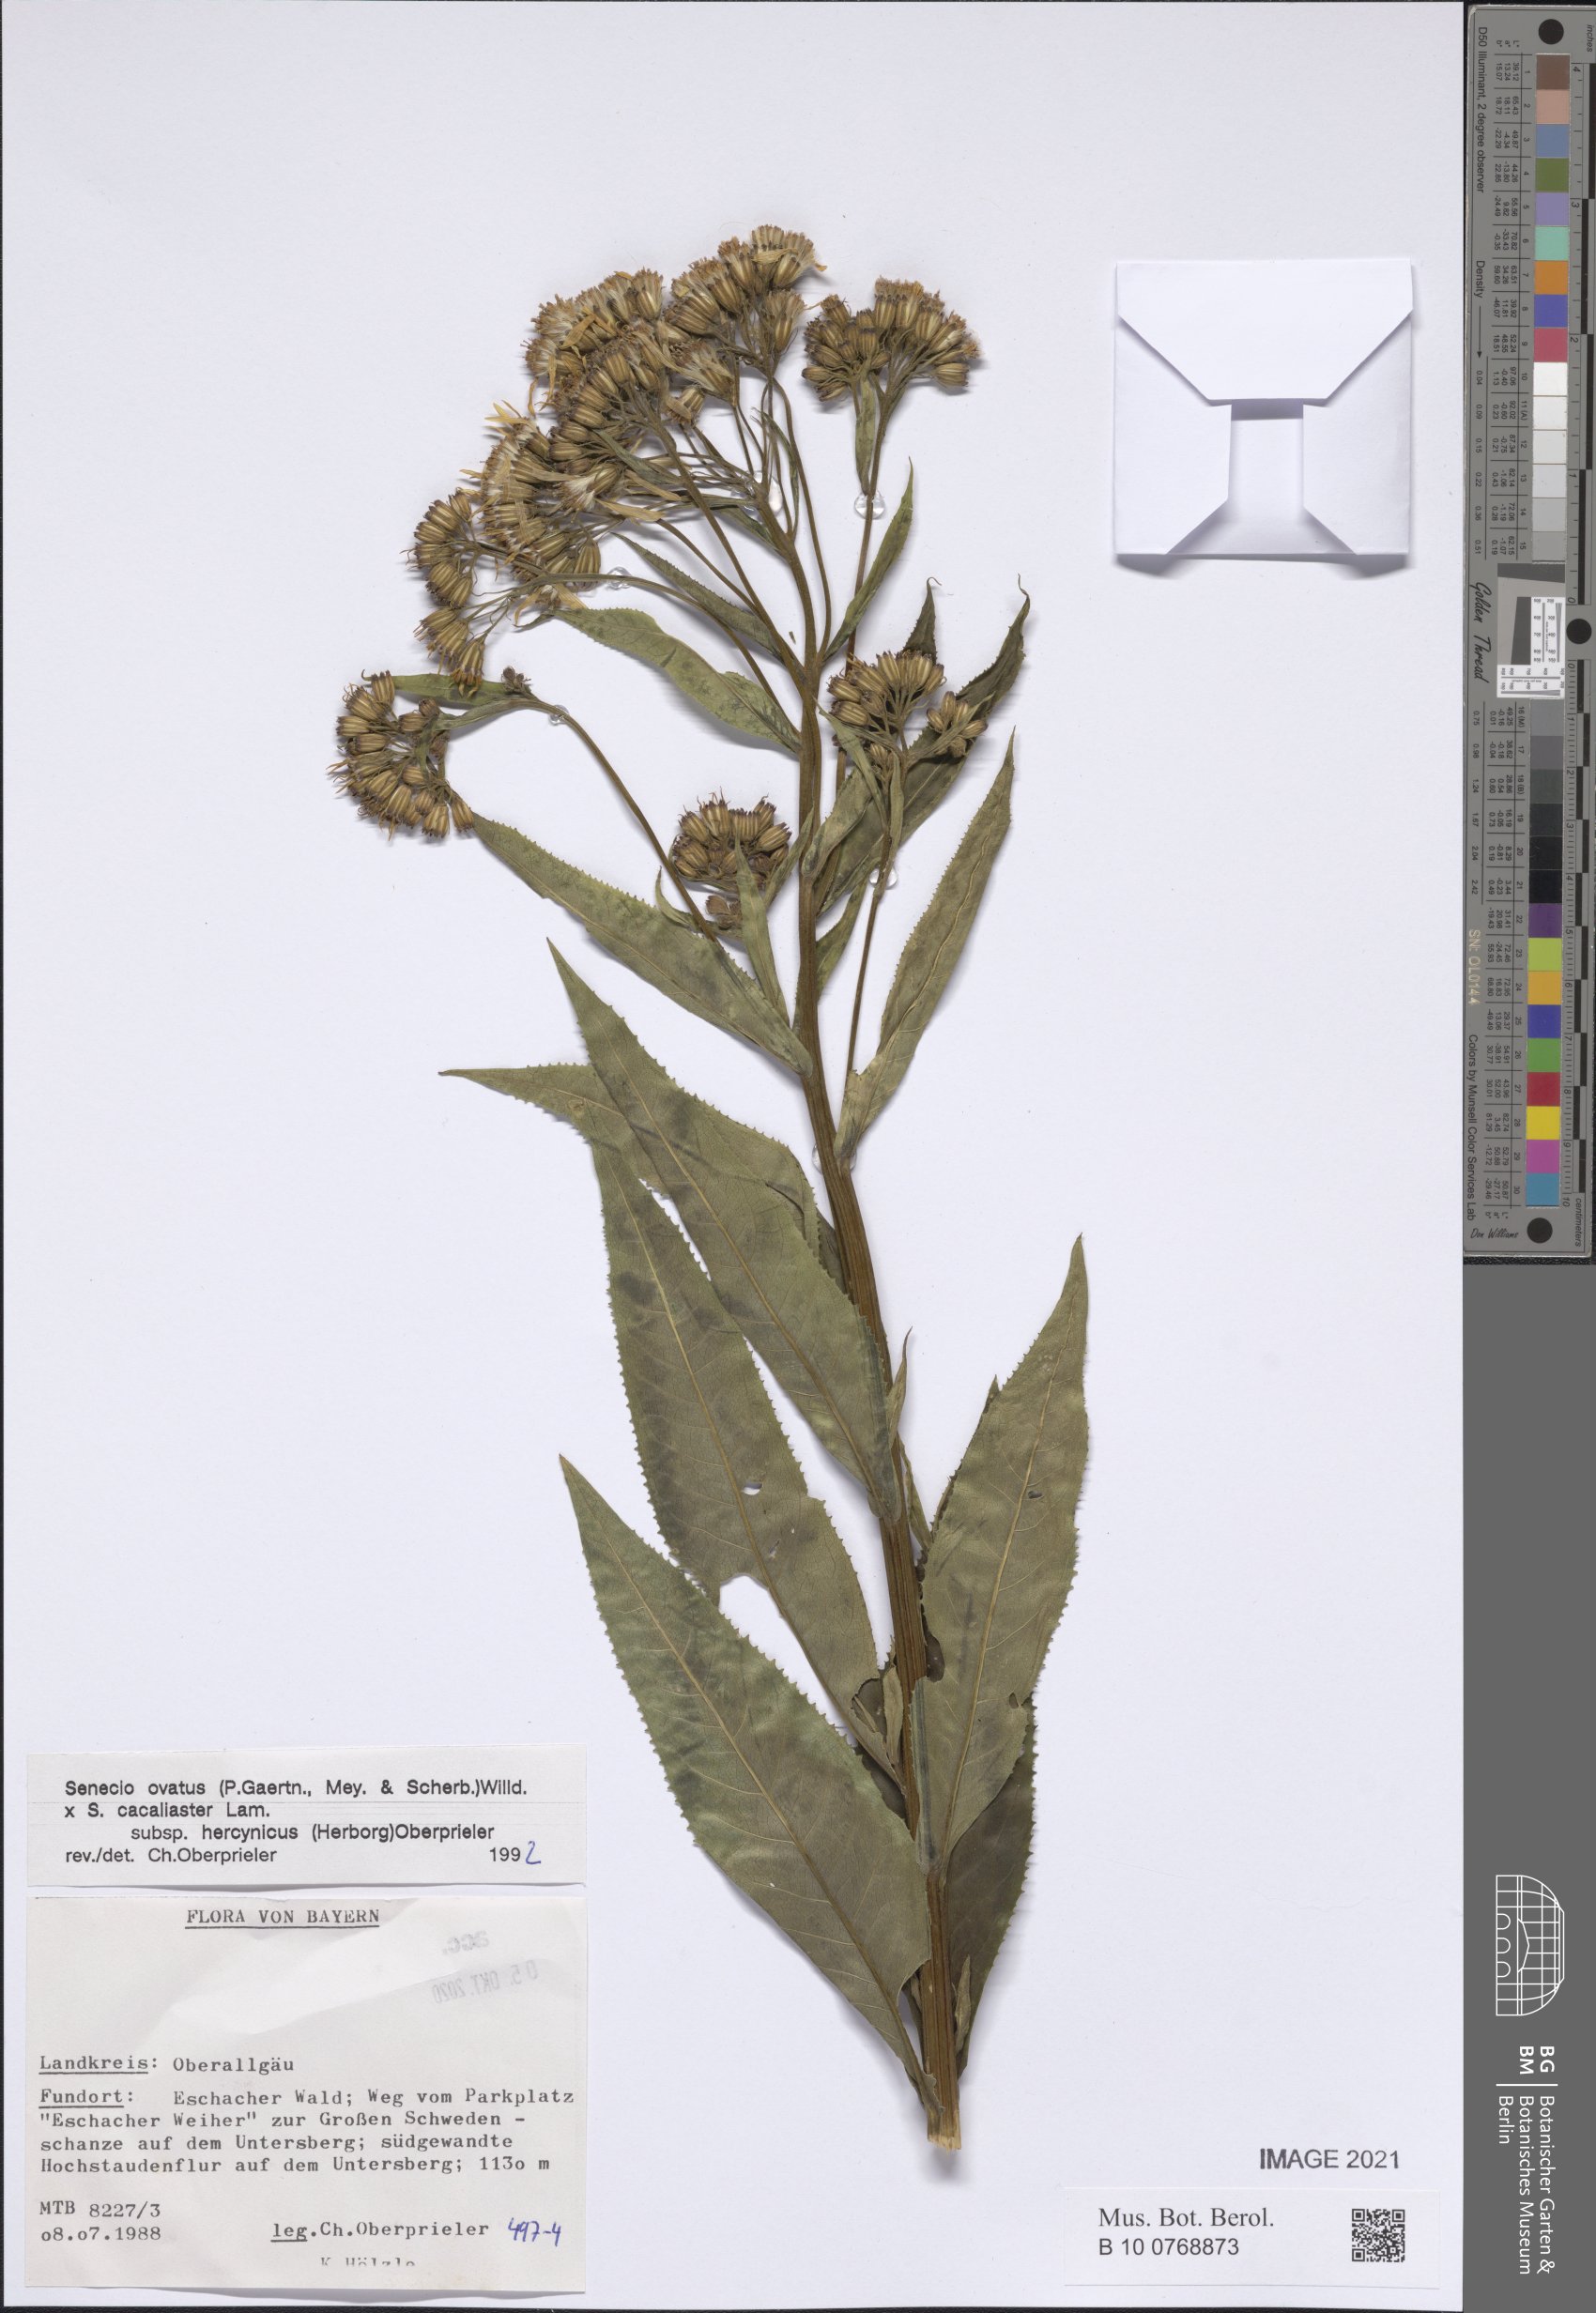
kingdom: Plantae
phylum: Tracheophyta
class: Magnoliopsida
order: Asterales
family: Asteraceae
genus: Senecio
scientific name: Senecio ovatus
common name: Wood ragwort
